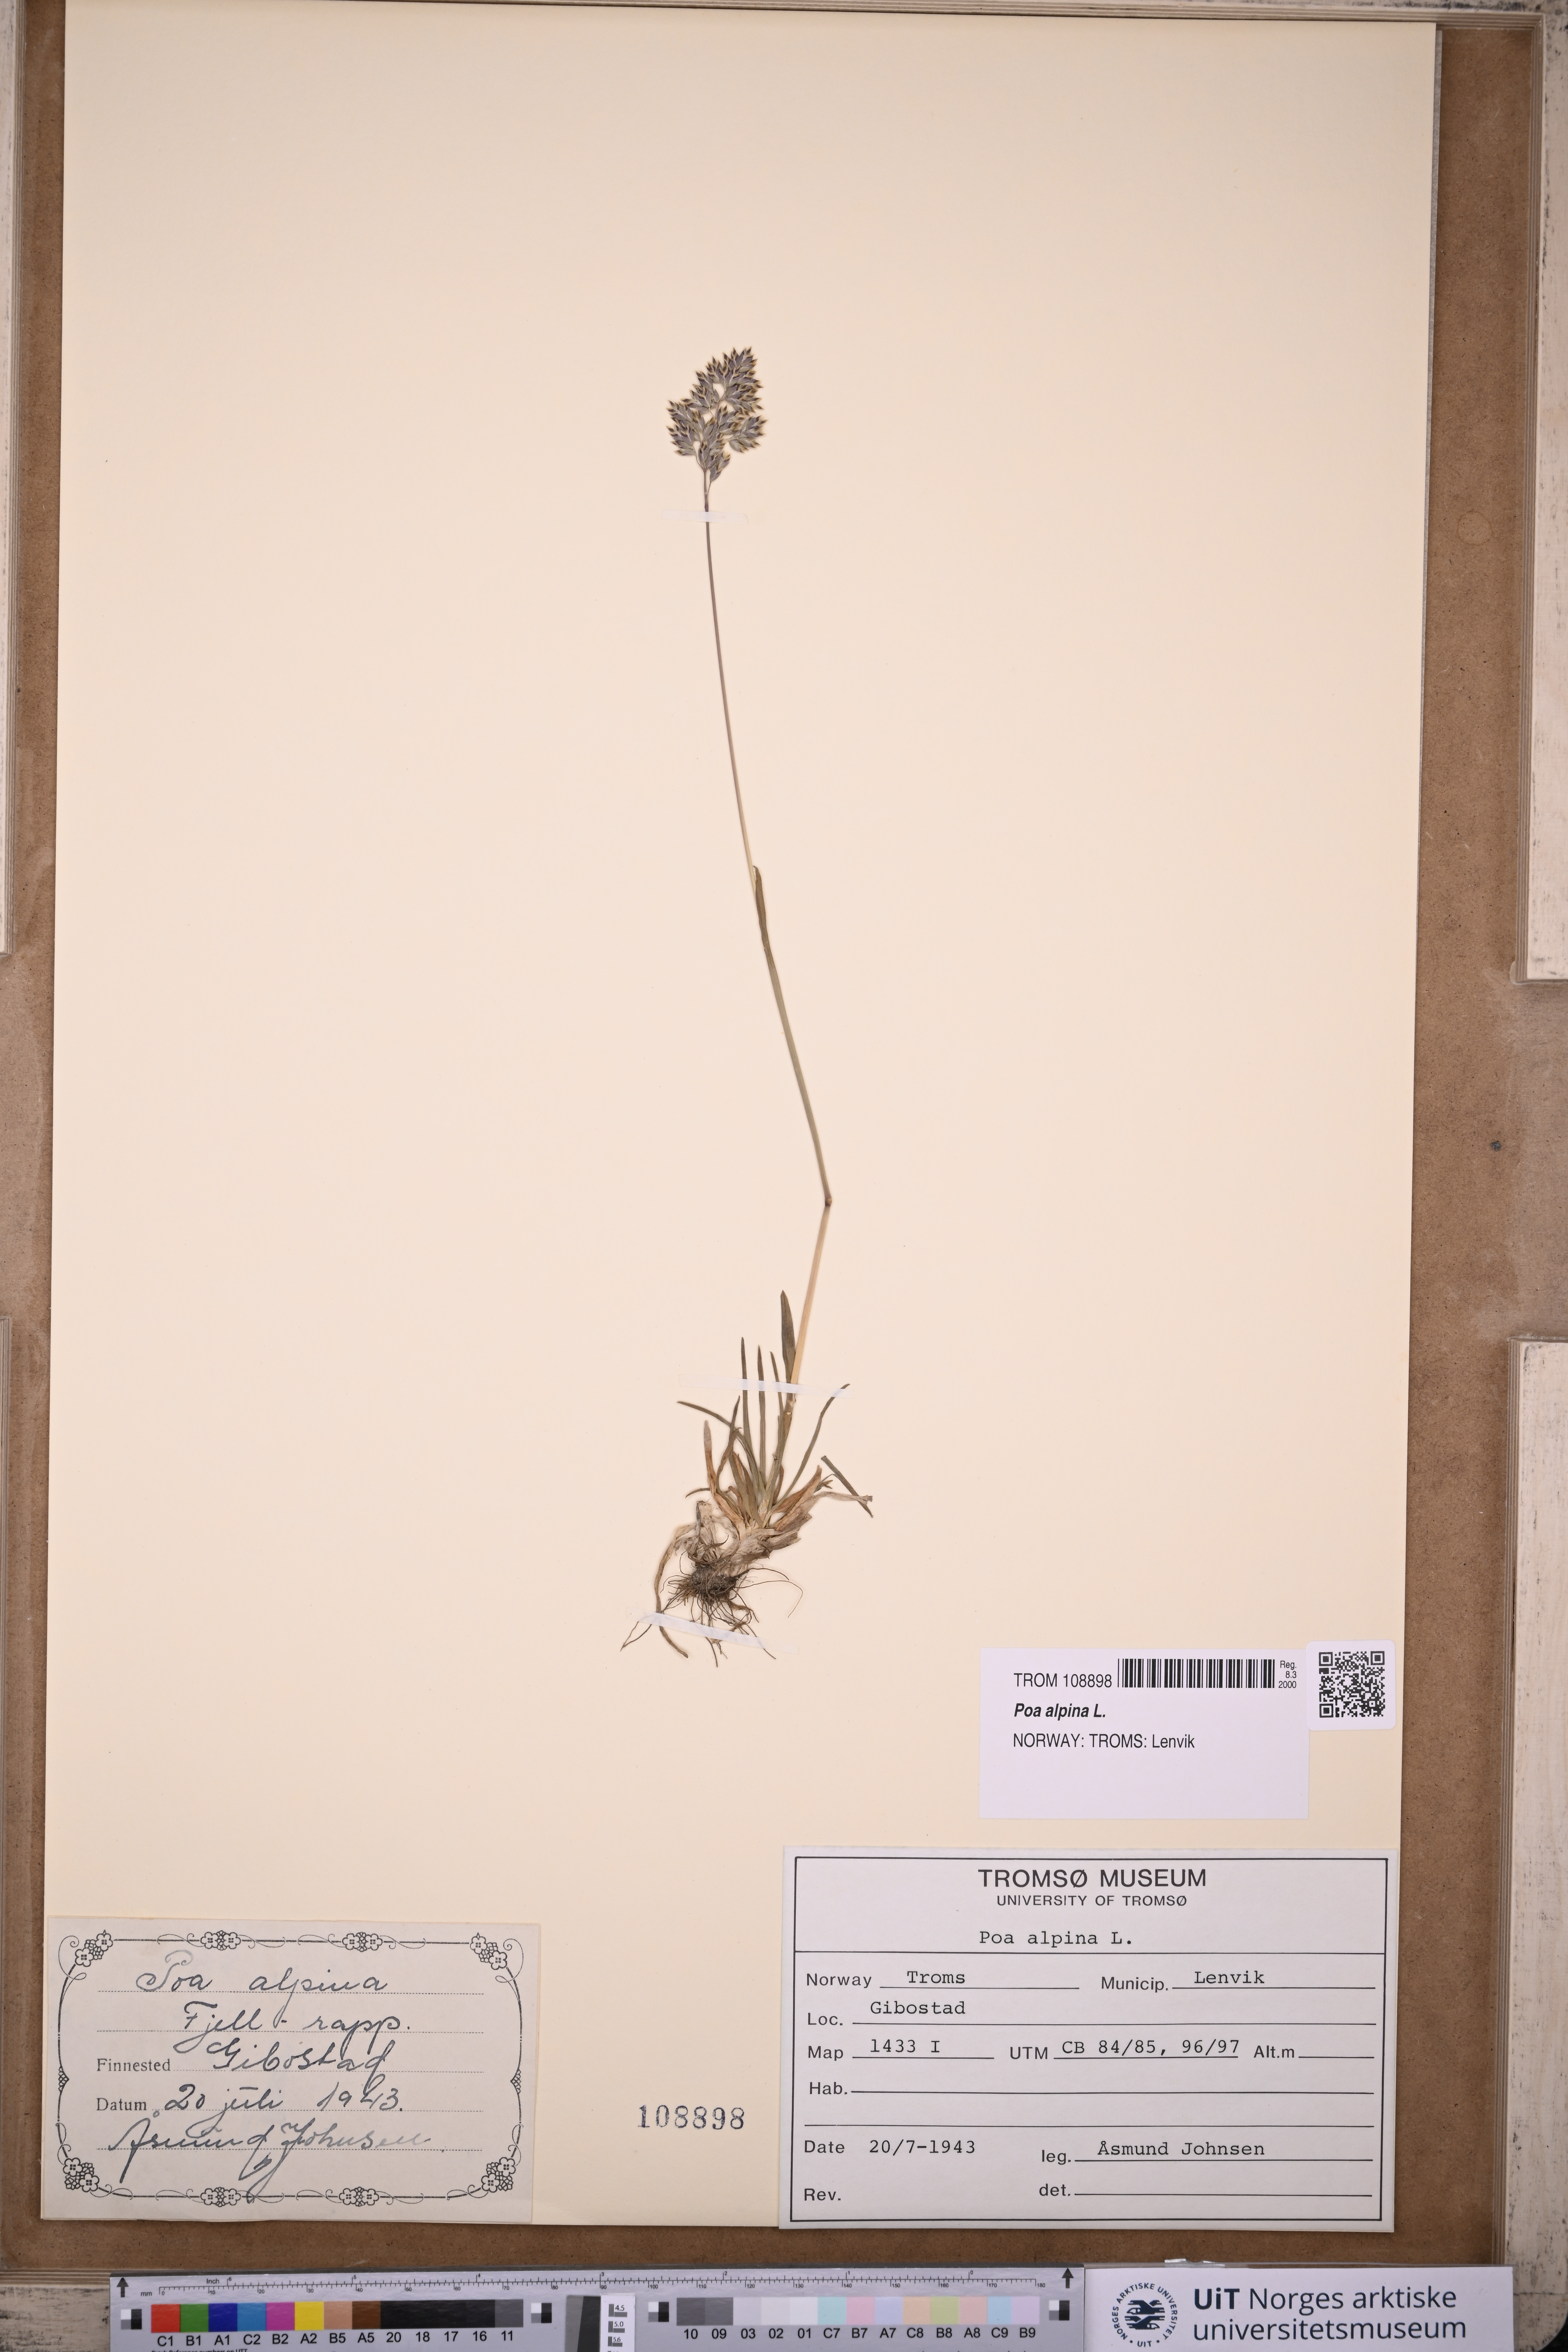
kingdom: Plantae
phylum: Tracheophyta
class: Liliopsida
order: Poales
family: Poaceae
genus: Poa
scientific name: Poa alpina
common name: Alpine bluegrass
